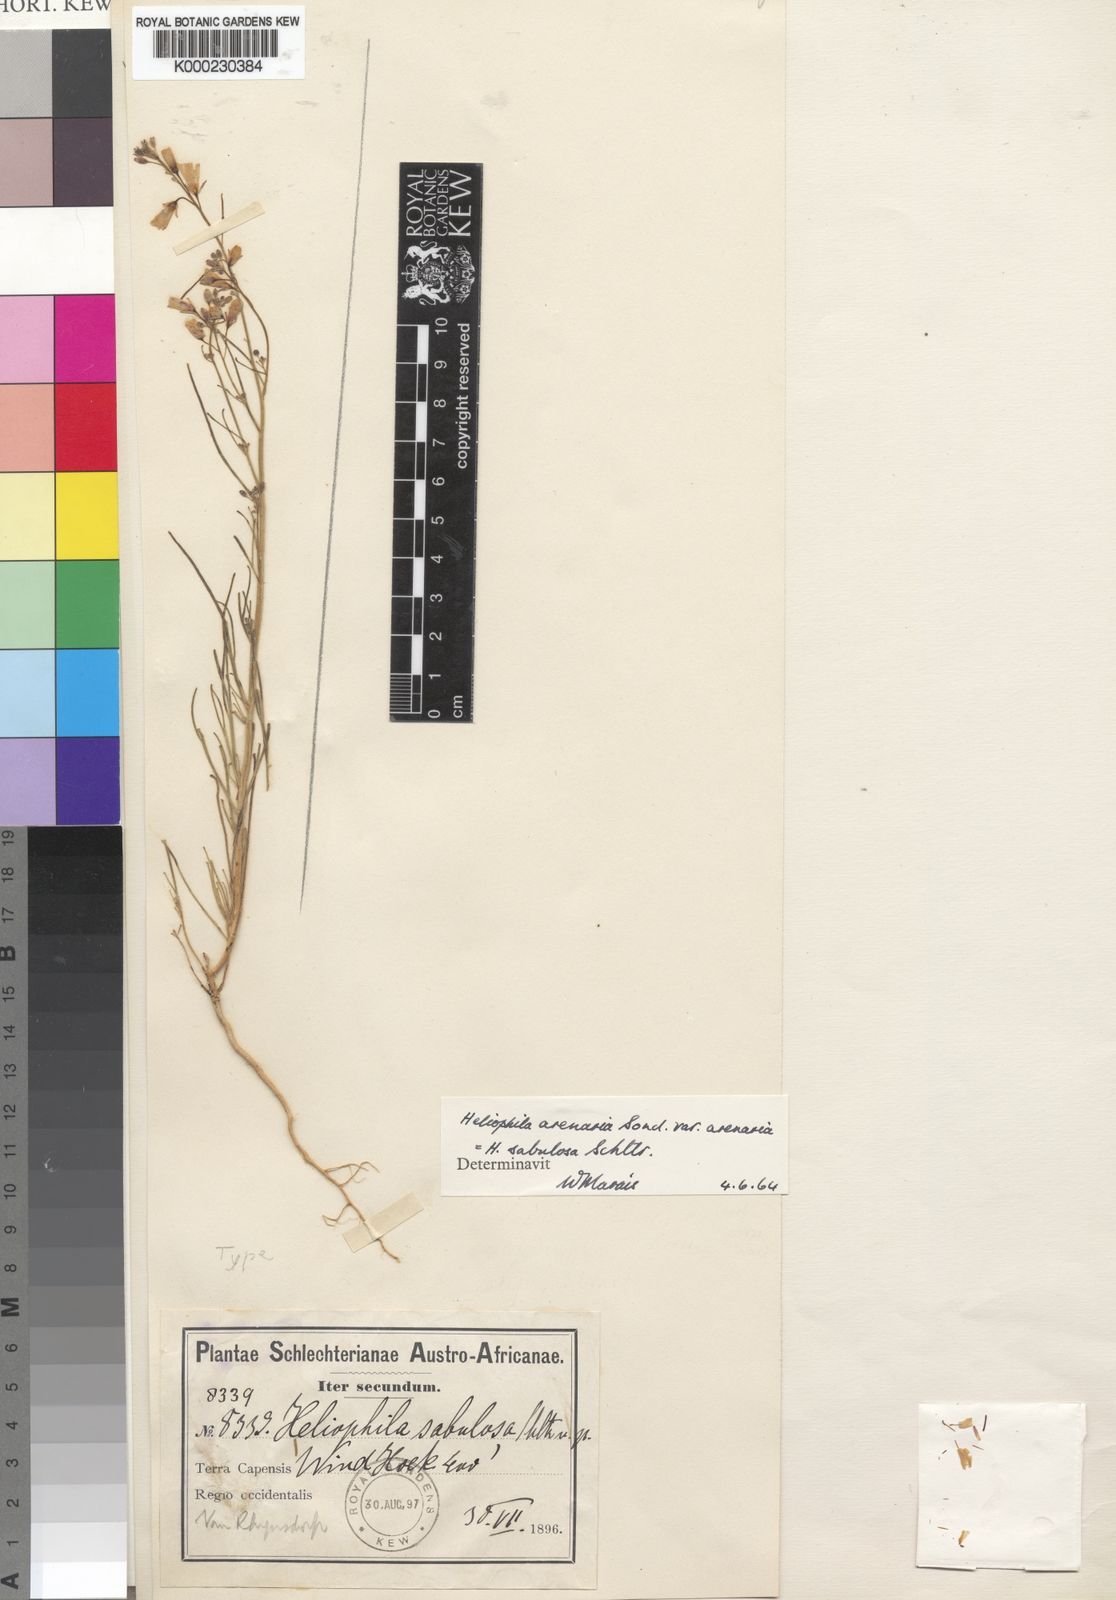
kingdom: Plantae
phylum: Tracheophyta
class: Magnoliopsida
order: Brassicales
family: Brassicaceae
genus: Heliophila
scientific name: Heliophila arenaria
